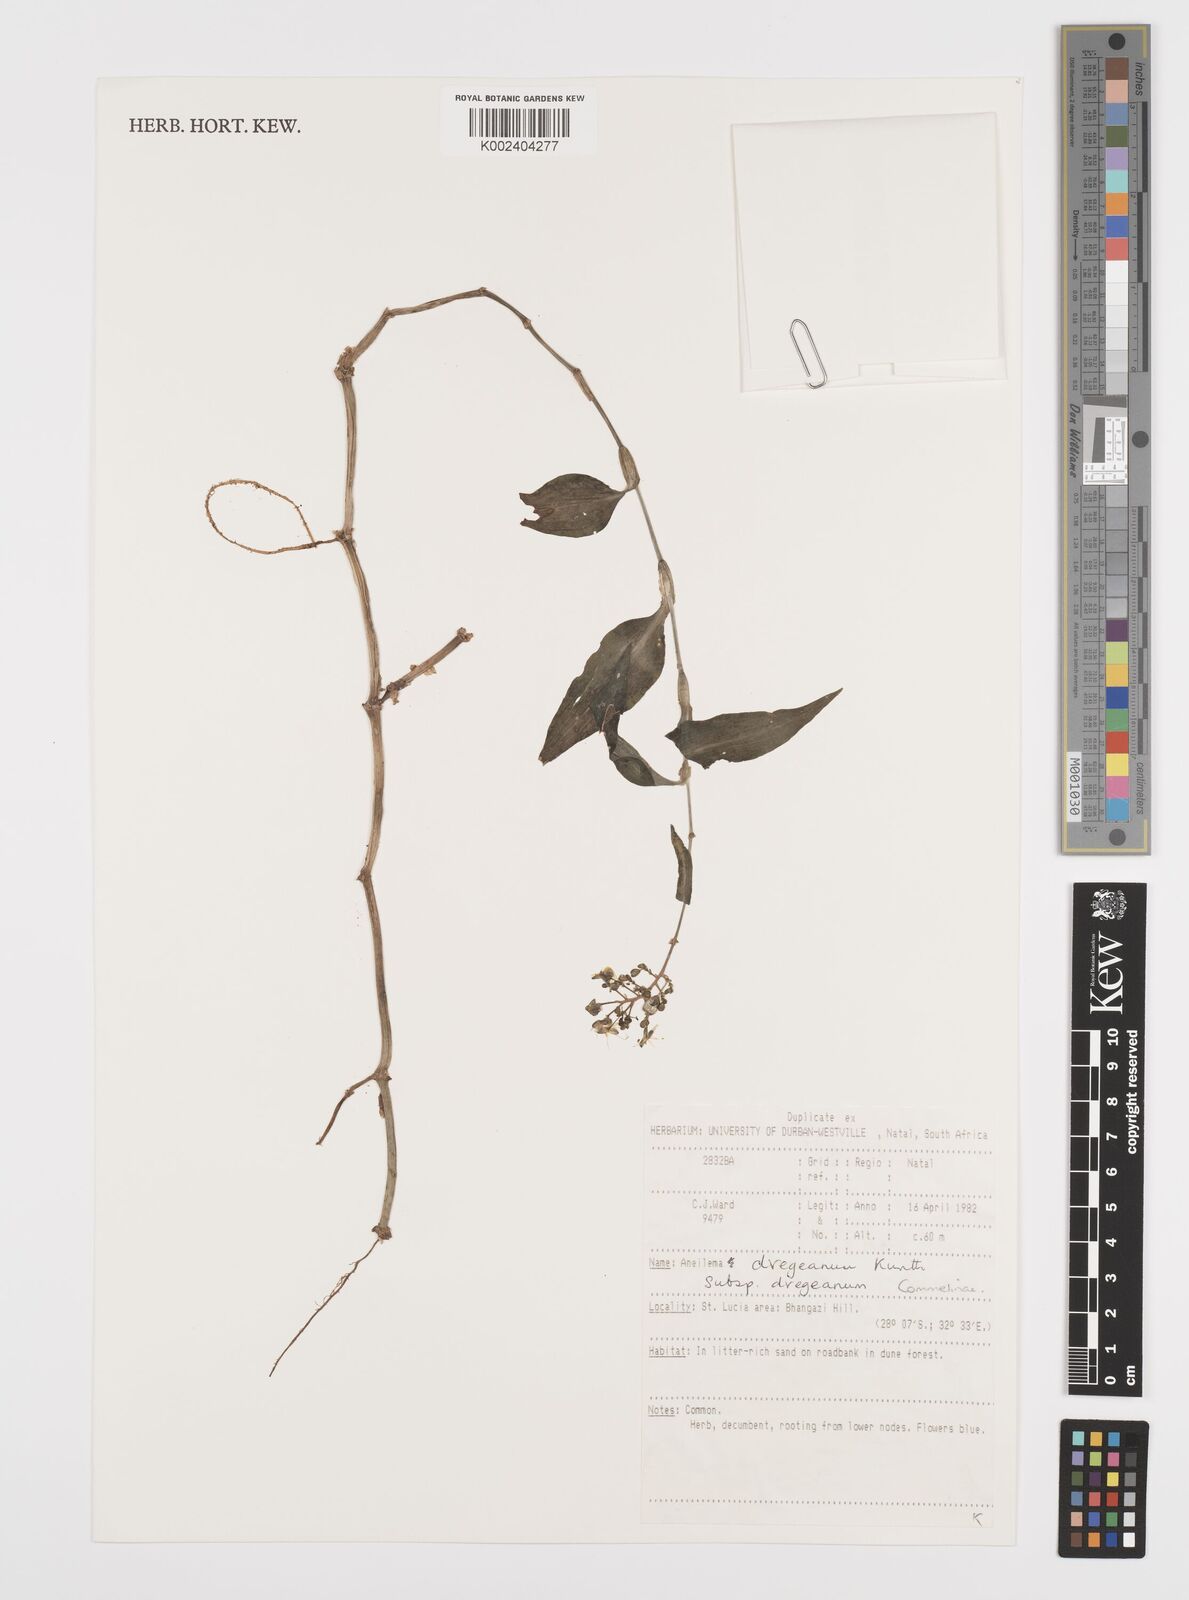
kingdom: Plantae
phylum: Tracheophyta
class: Liliopsida
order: Commelinales
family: Commelinaceae
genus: Aneilema
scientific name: Aneilema dregeanum
